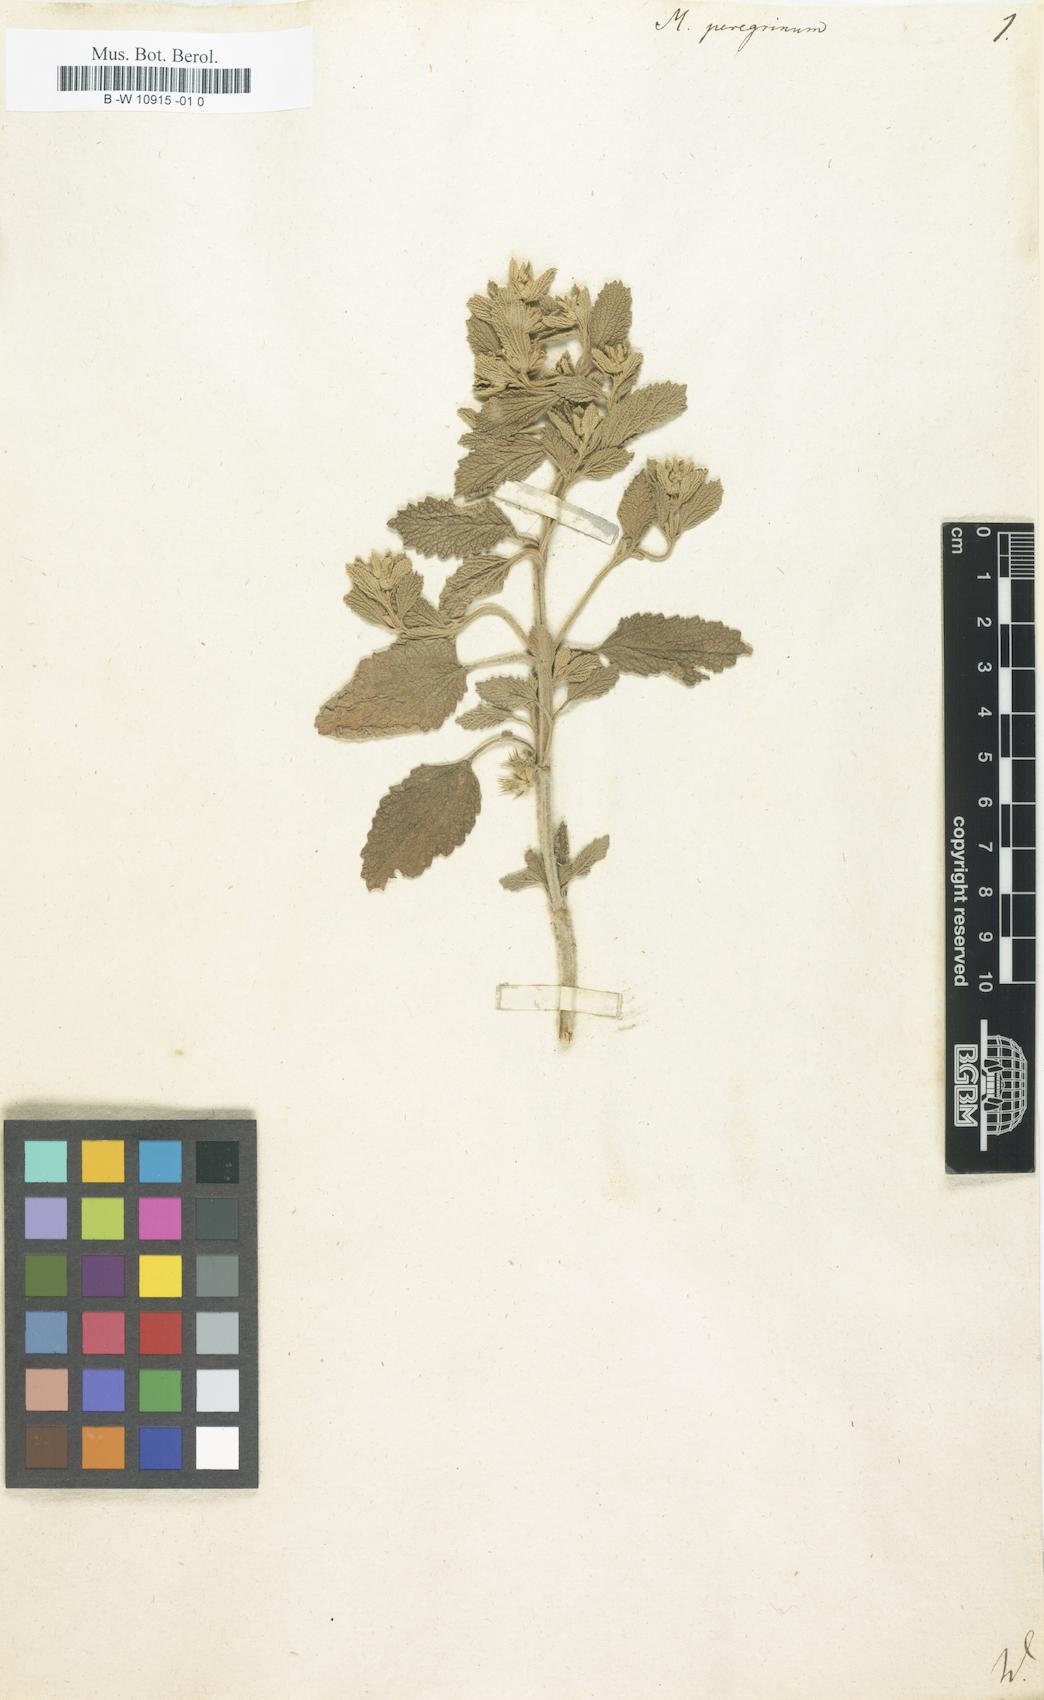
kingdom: Plantae
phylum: Tracheophyta
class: Magnoliopsida
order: Lamiales
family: Lamiaceae
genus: Marrubium
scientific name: Marrubium peregrinum
